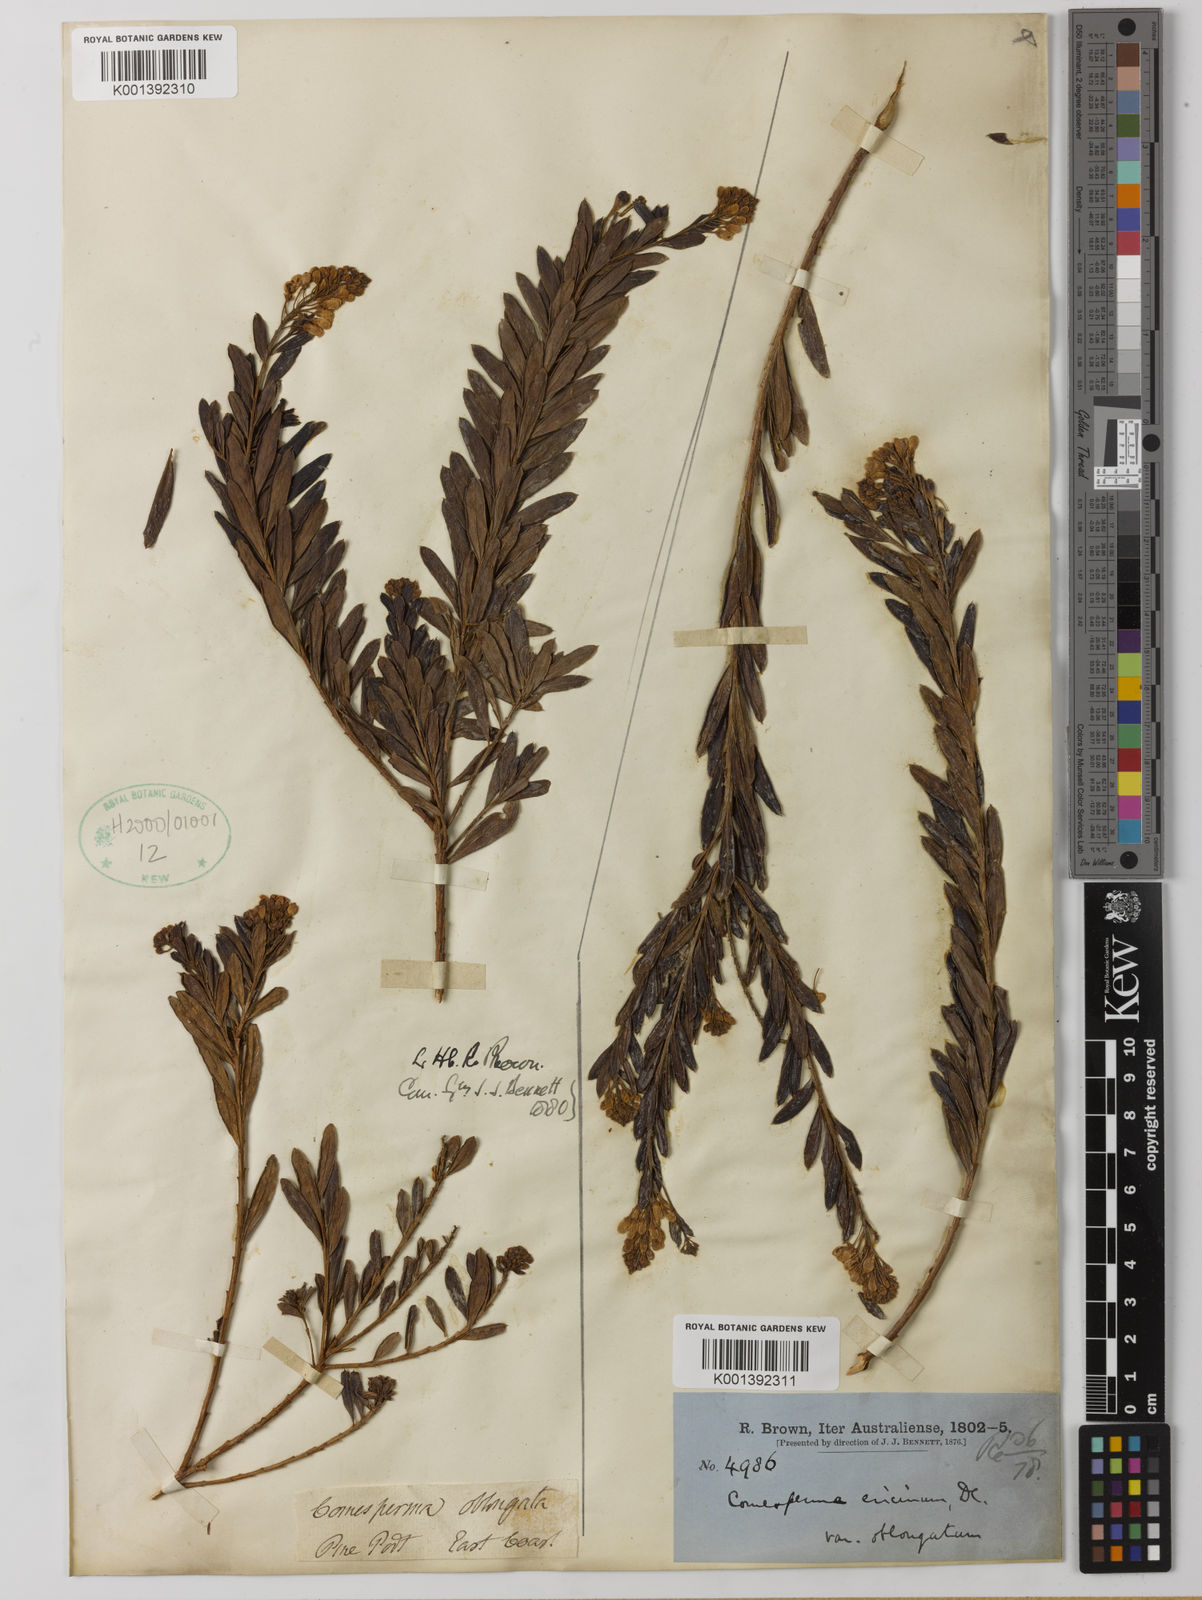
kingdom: Plantae
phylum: Tracheophyta
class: Magnoliopsida
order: Fabales
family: Polygalaceae
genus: Comesperma
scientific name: Comesperma oblongatum
